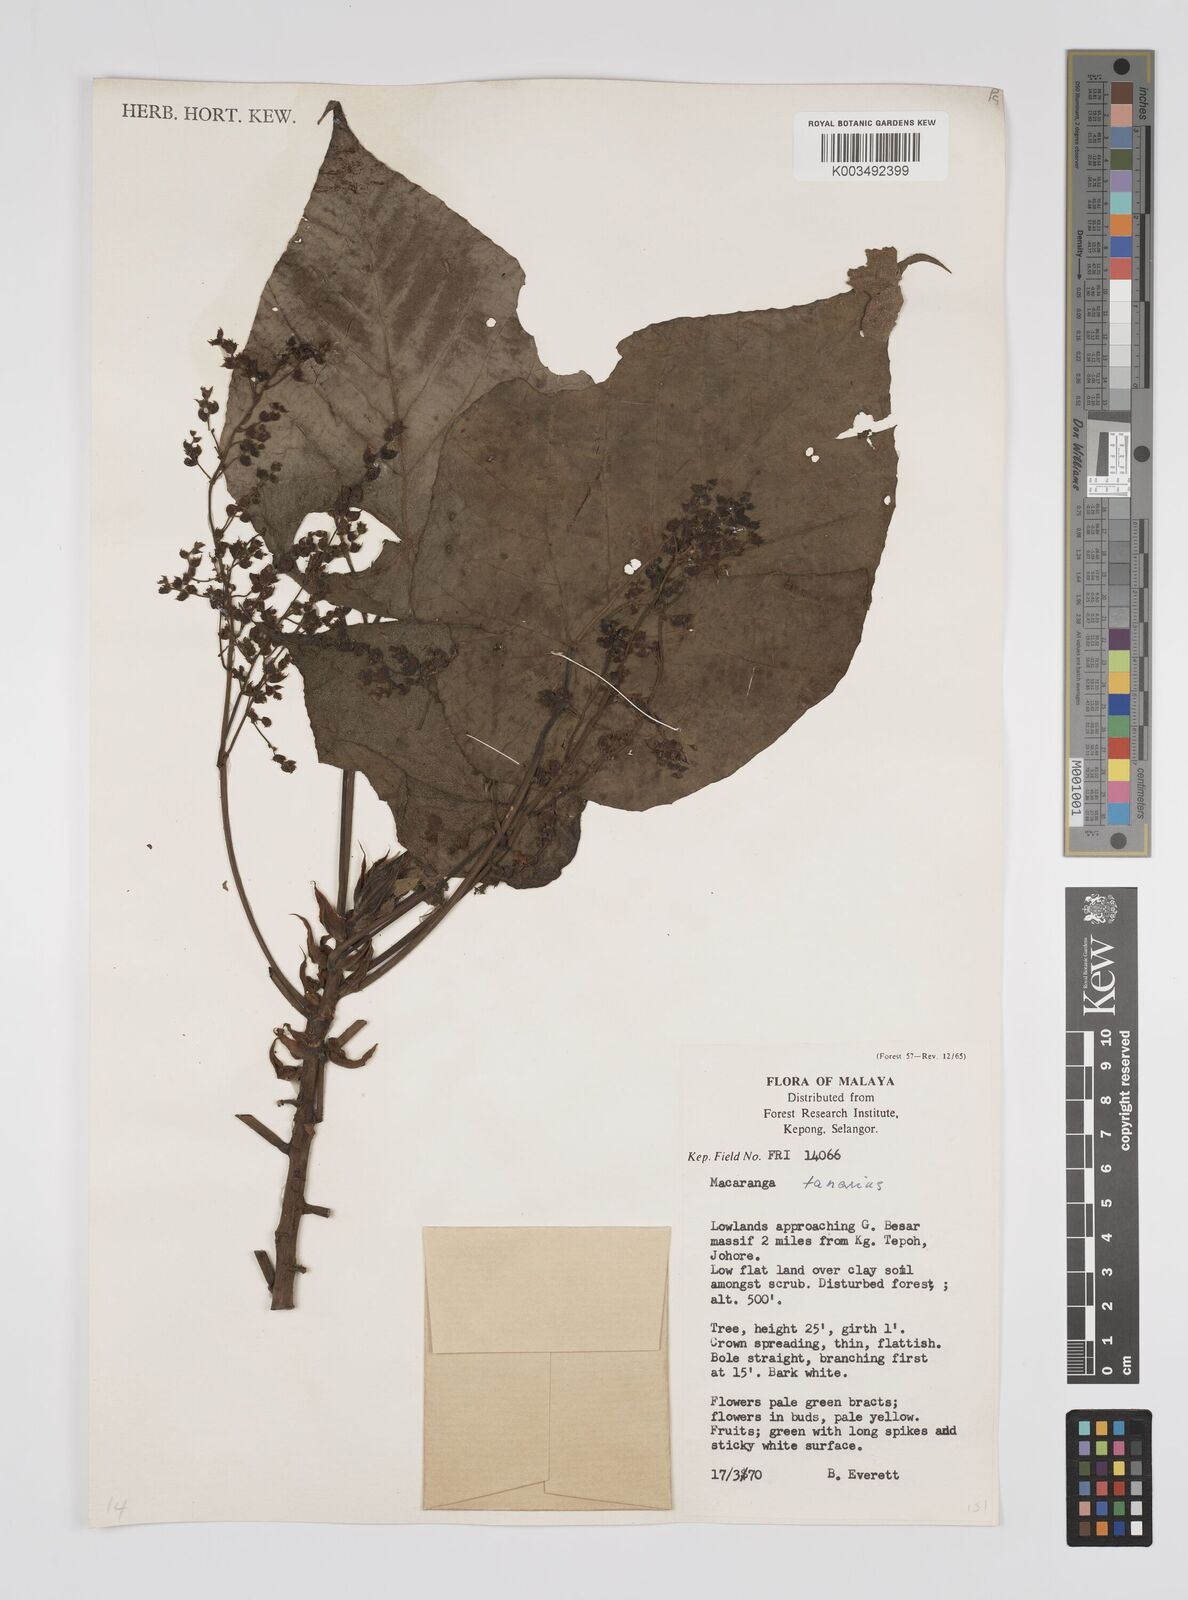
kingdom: Plantae
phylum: Tracheophyta
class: Magnoliopsida
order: Malpighiales
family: Euphorbiaceae
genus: Macaranga
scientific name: Macaranga tanarius
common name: Parasol leaf tree
